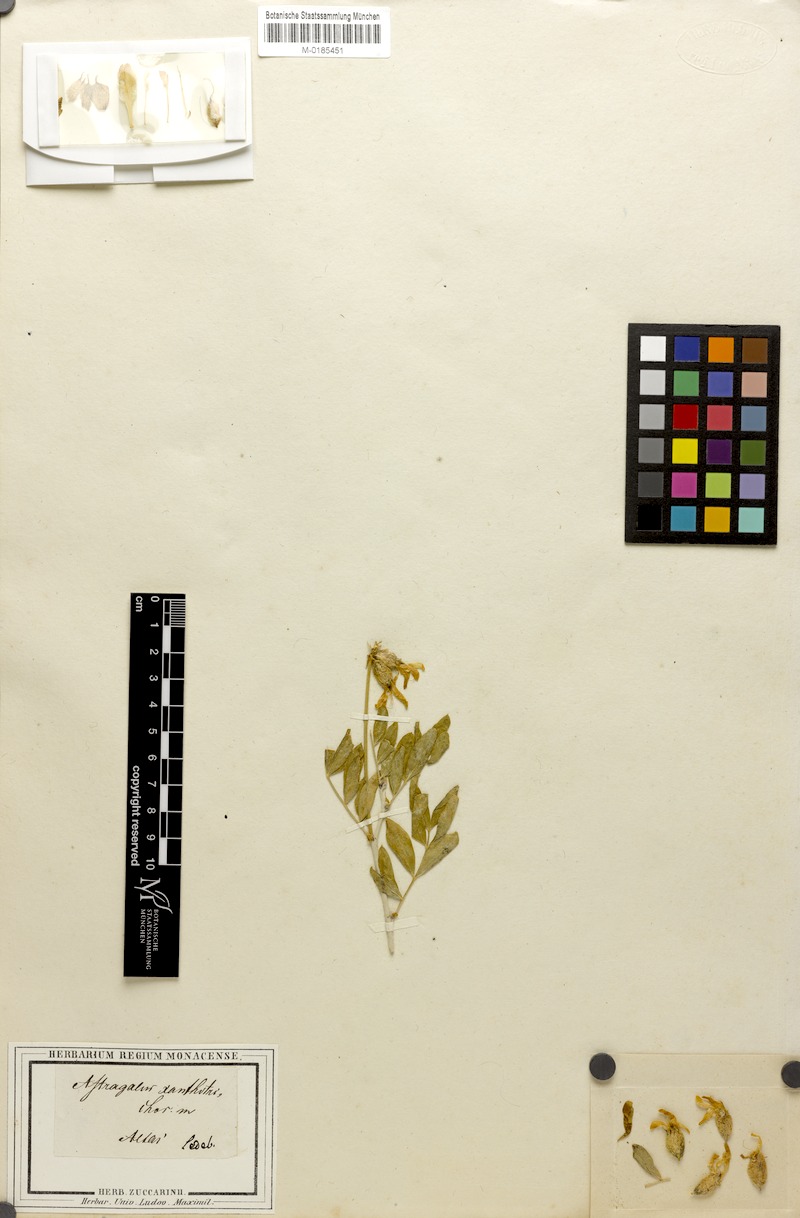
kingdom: Plantae
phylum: Tracheophyta
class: Magnoliopsida
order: Fabales
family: Fabaceae
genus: Astragalus
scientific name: Astragalus xanthotrichos
